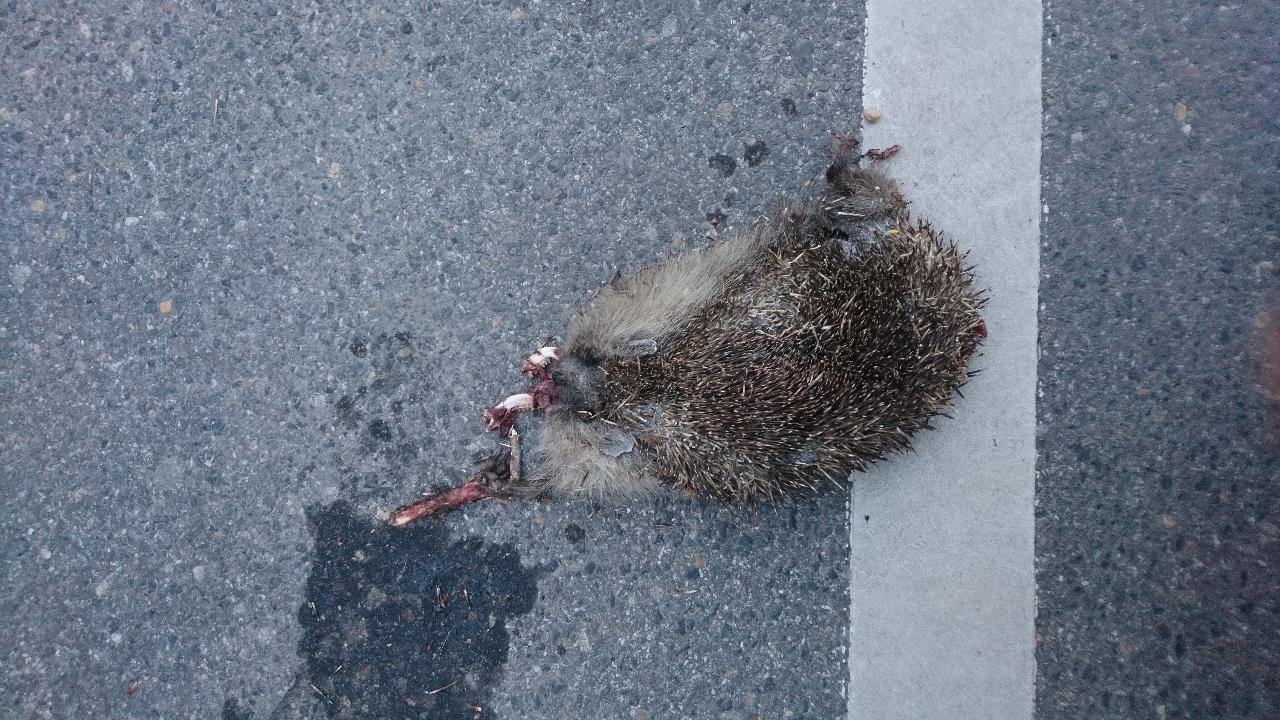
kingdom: Animalia
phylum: Chordata
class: Mammalia
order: Erinaceomorpha
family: Erinaceidae
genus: Erinaceus
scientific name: Erinaceus
